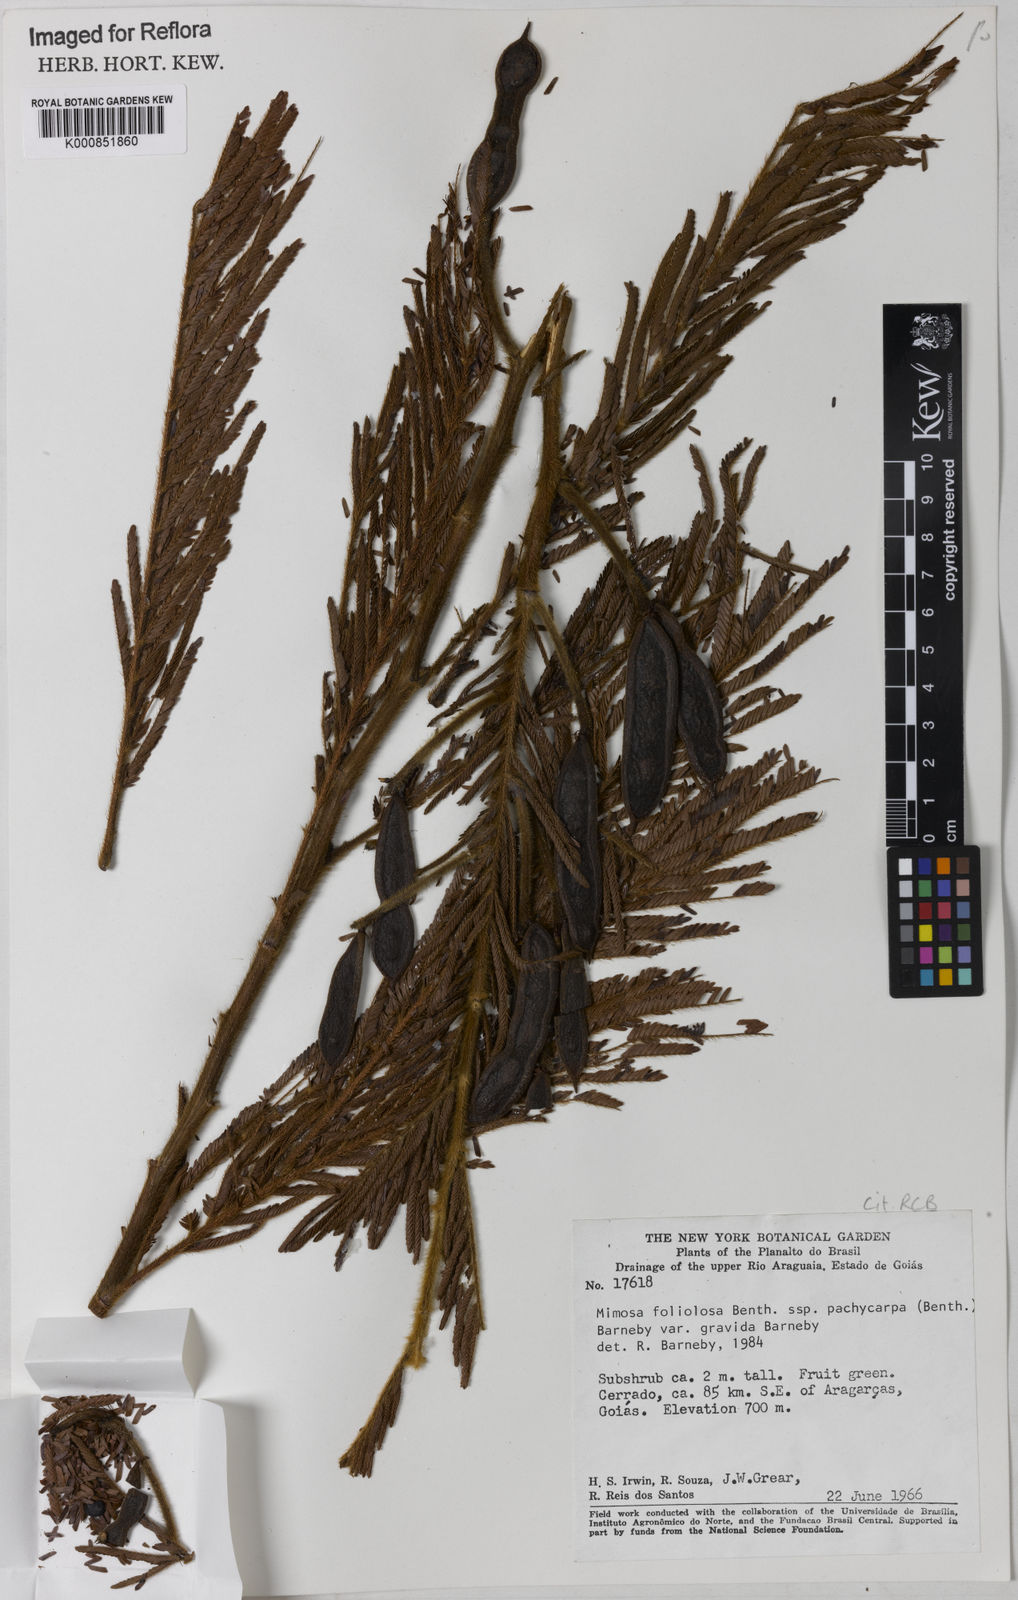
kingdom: Plantae
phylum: Tracheophyta
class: Magnoliopsida
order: Fabales
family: Fabaceae
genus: Mimosa
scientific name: Mimosa foliolosa
